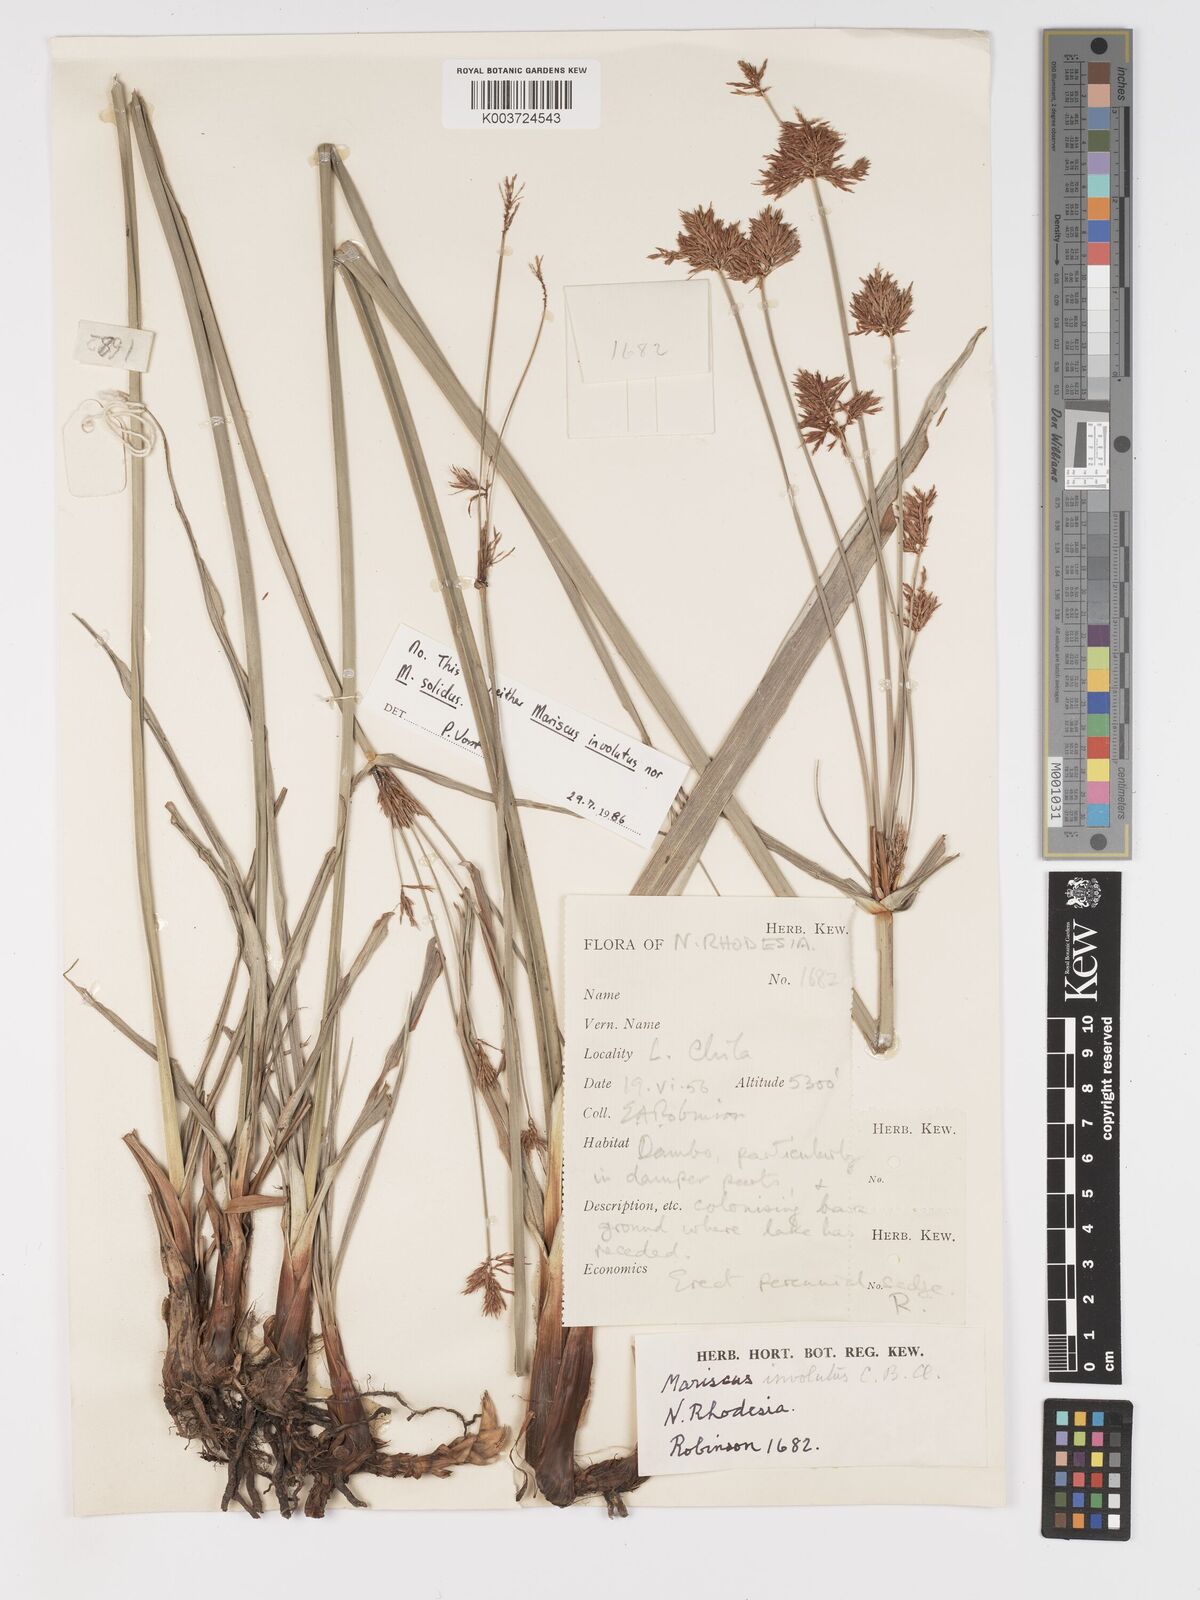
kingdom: Plantae
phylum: Tracheophyta
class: Liliopsida
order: Poales
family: Cyperaceae
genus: Cyperus
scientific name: Cyperus dactyliformis
